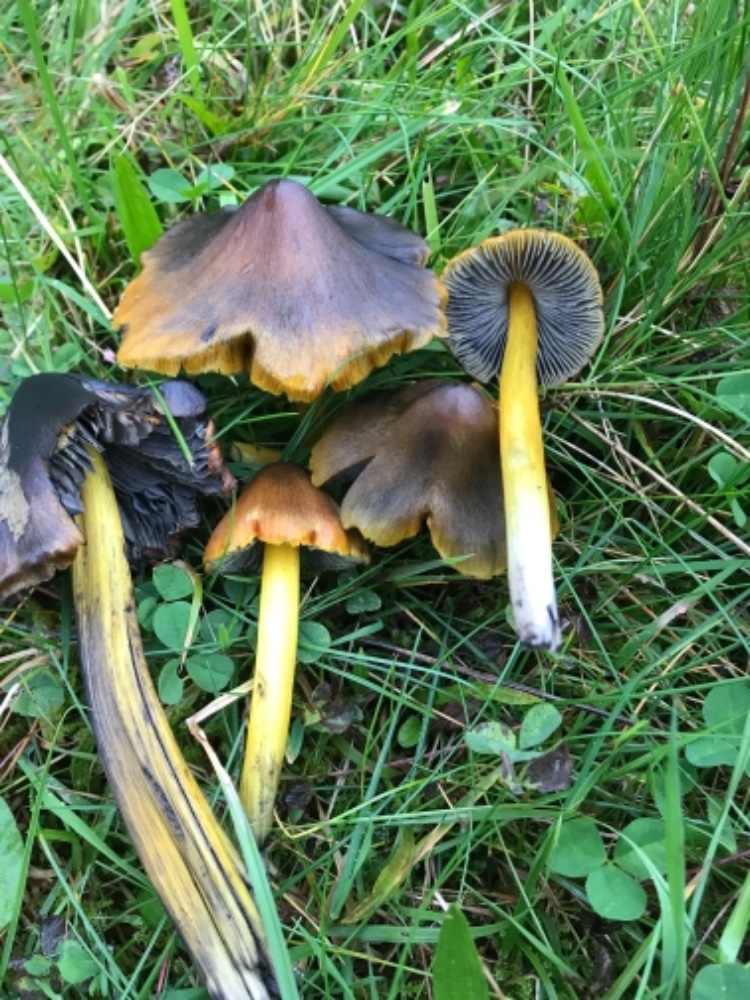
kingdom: Fungi
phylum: Basidiomycota
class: Agaricomycetes
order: Agaricales
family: Hygrophoraceae
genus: Hygrocybe
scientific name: Hygrocybe conica
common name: kegle-vokshat
